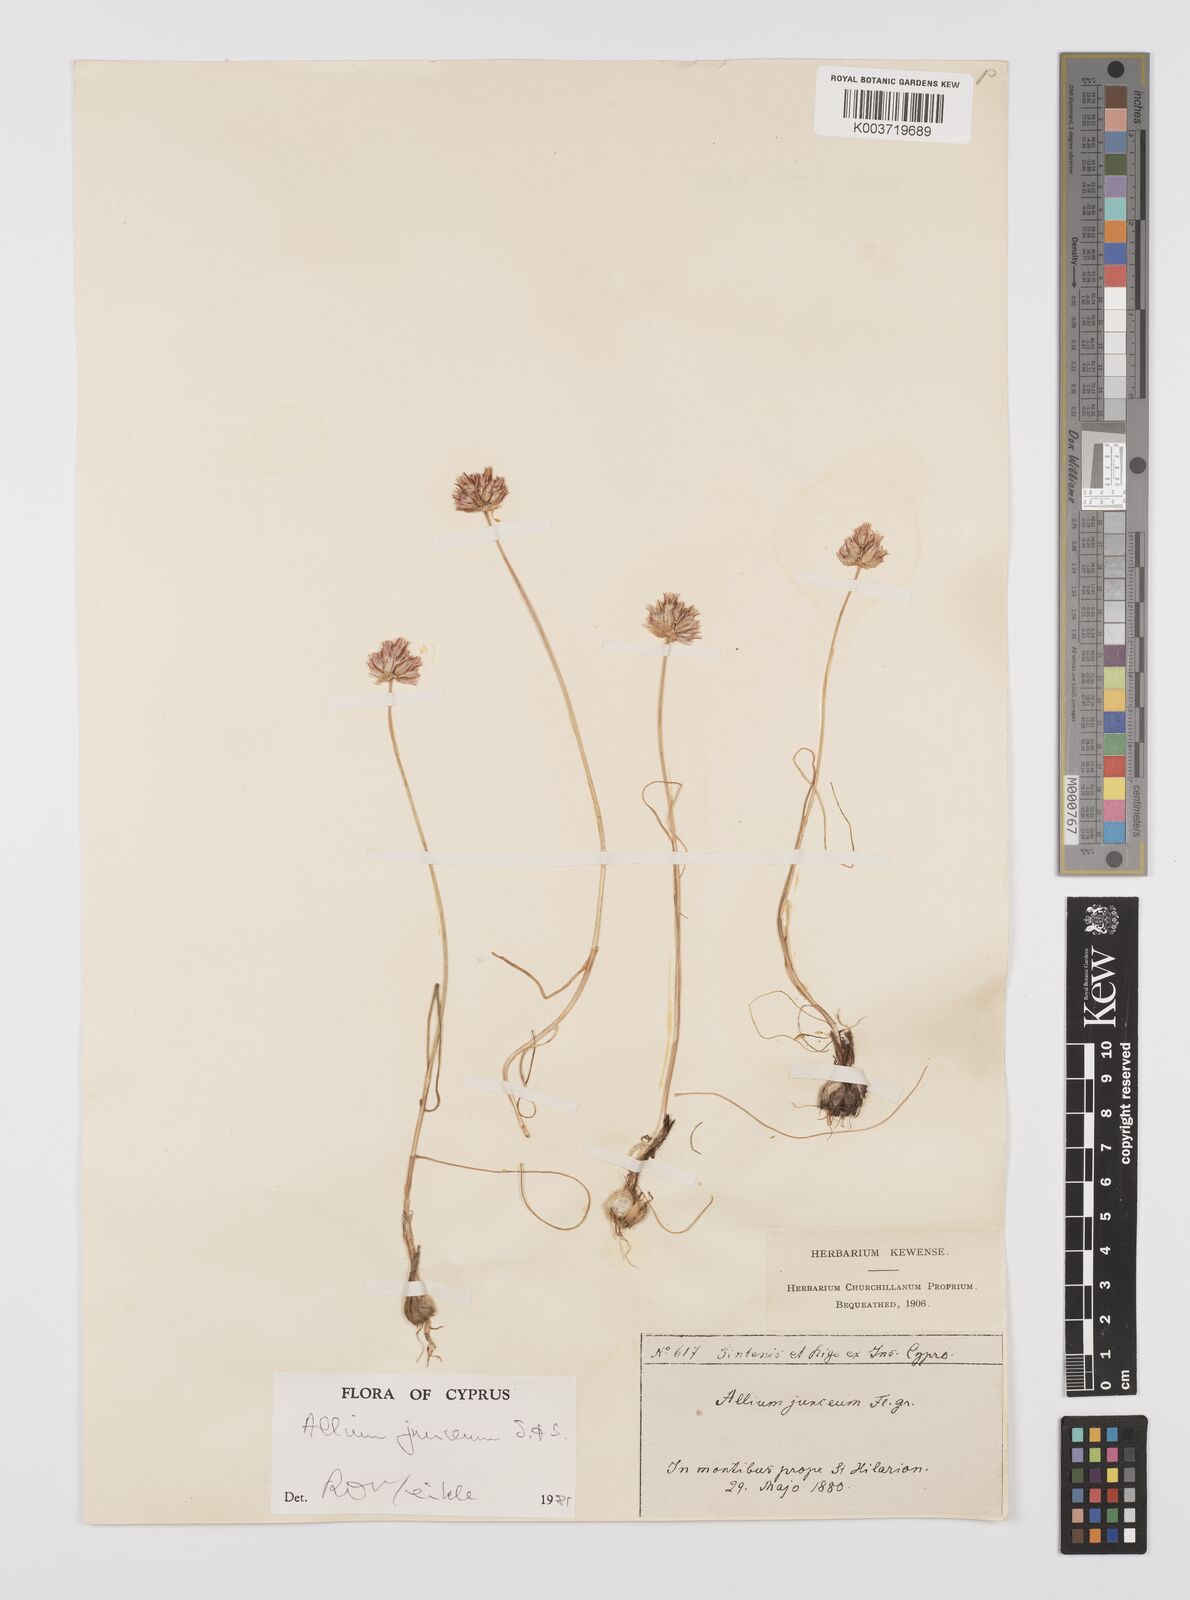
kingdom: Plantae
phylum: Tracheophyta
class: Liliopsida
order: Asparagales
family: Amaryllidaceae
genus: Allium
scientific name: Allium junceum
